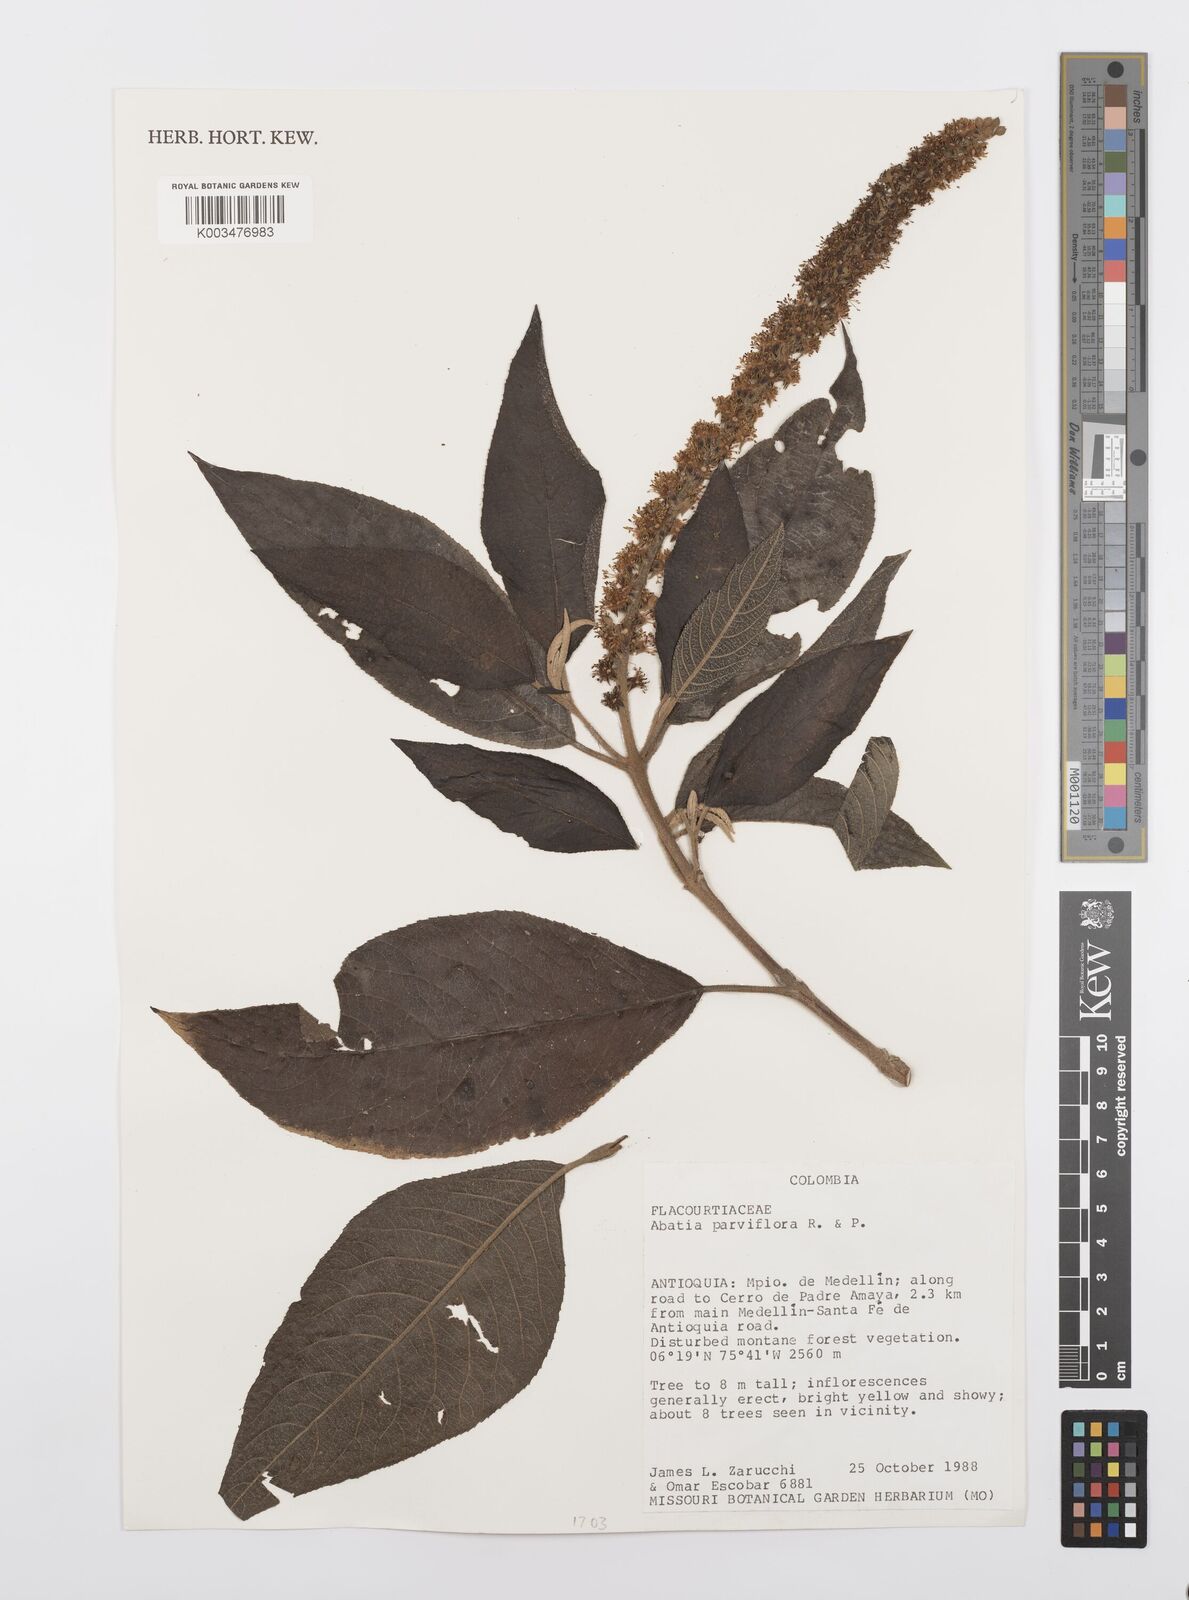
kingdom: Plantae
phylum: Tracheophyta
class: Magnoliopsida
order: Malpighiales
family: Salicaceae
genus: Abatia
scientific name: Abatia parviflora
